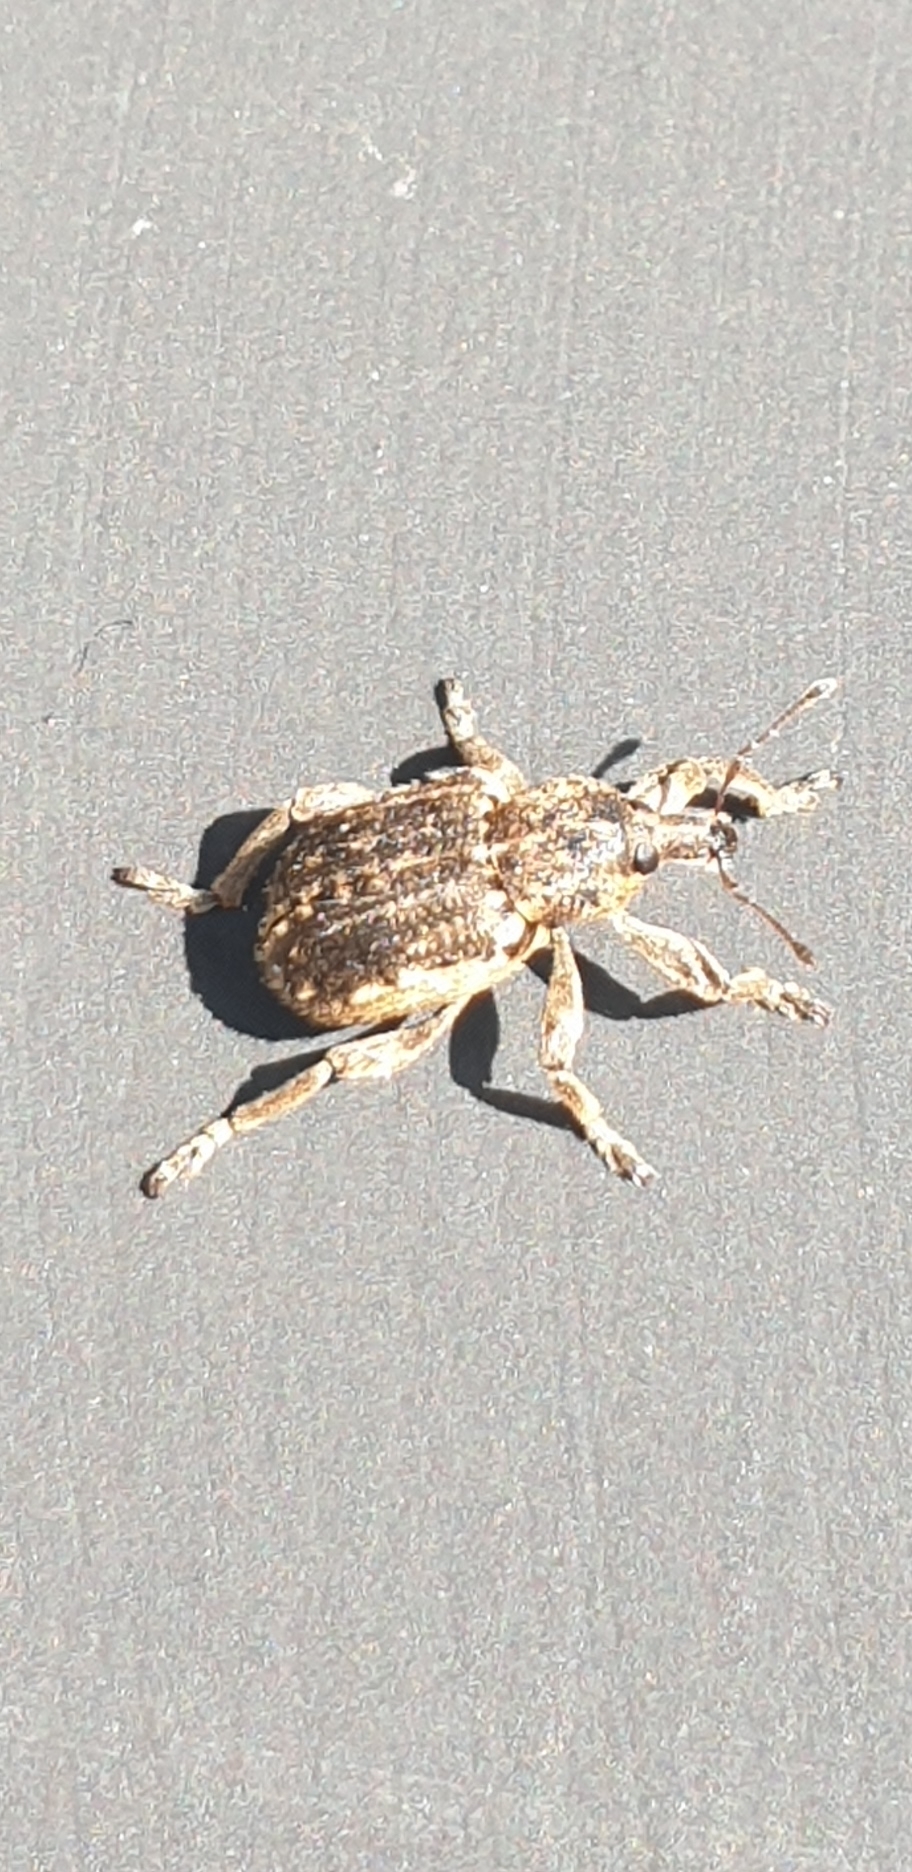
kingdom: Animalia
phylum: Arthropoda
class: Insecta
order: Coleoptera
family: Curculionidae
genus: Brachypera
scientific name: Brachypera zoilus
